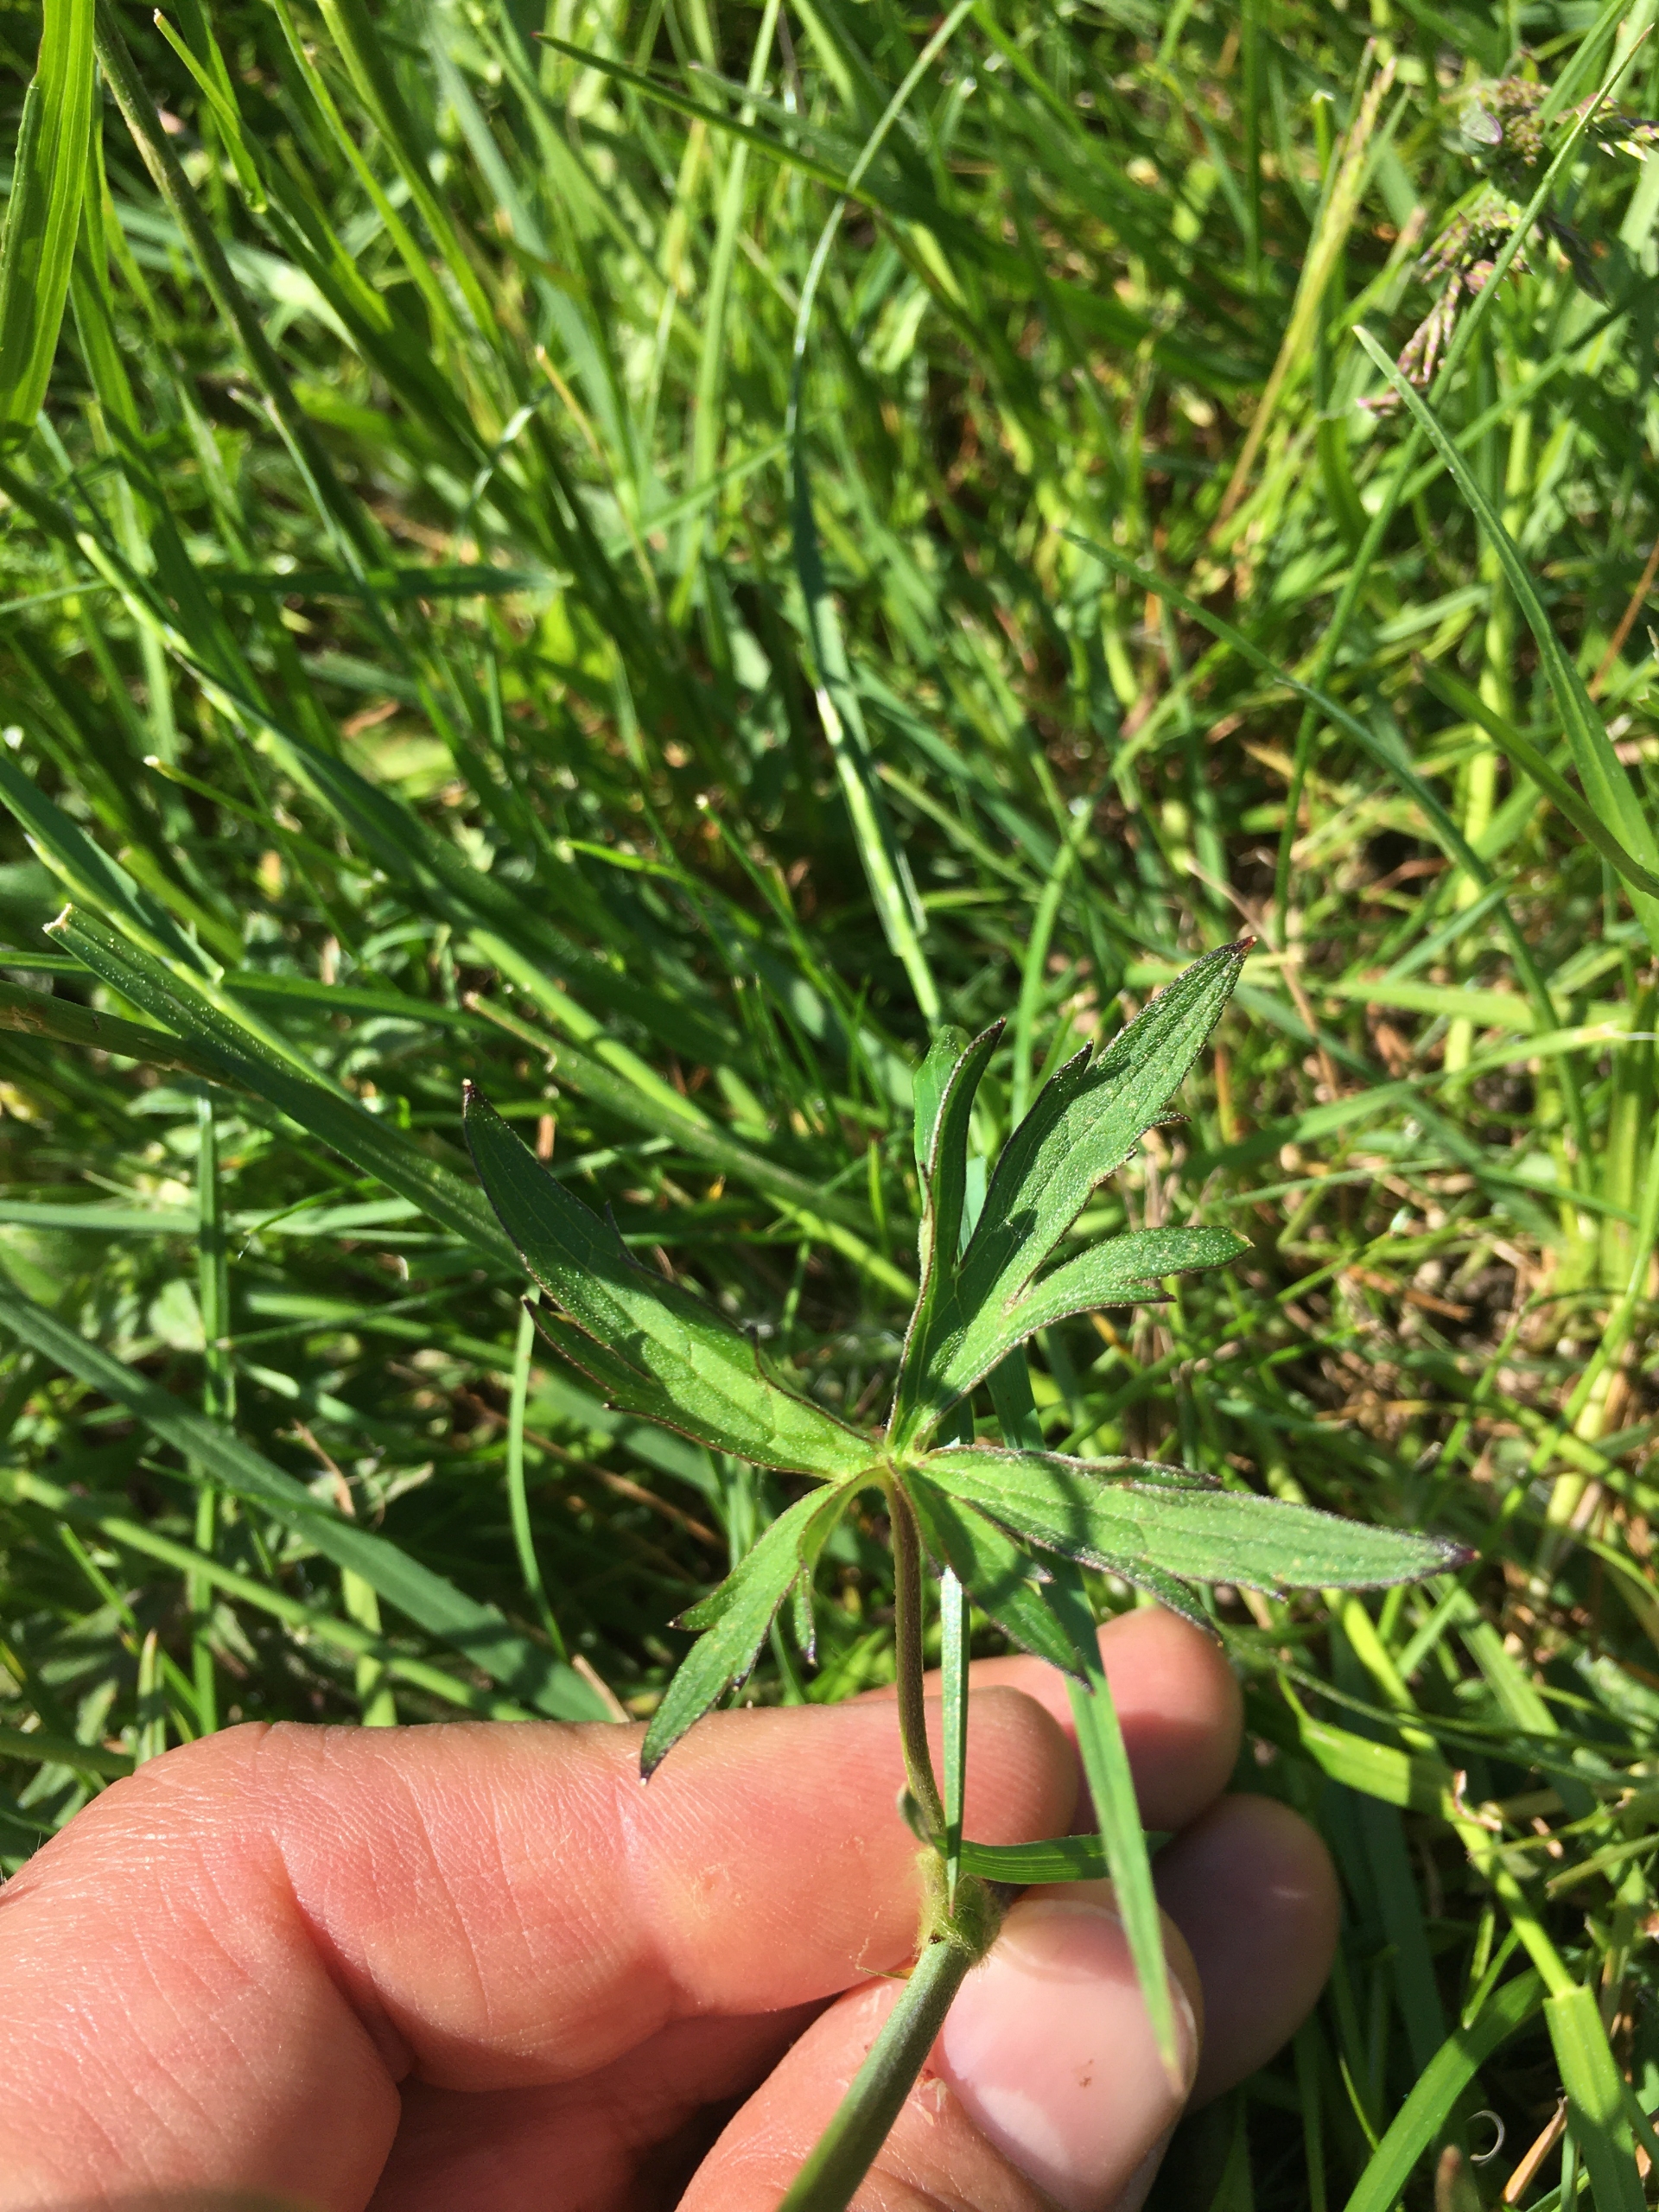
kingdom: Plantae
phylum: Tracheophyta
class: Magnoliopsida
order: Ranunculales
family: Ranunculaceae
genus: Ranunculus
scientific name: Ranunculus acris
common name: Bidende ranunkel
